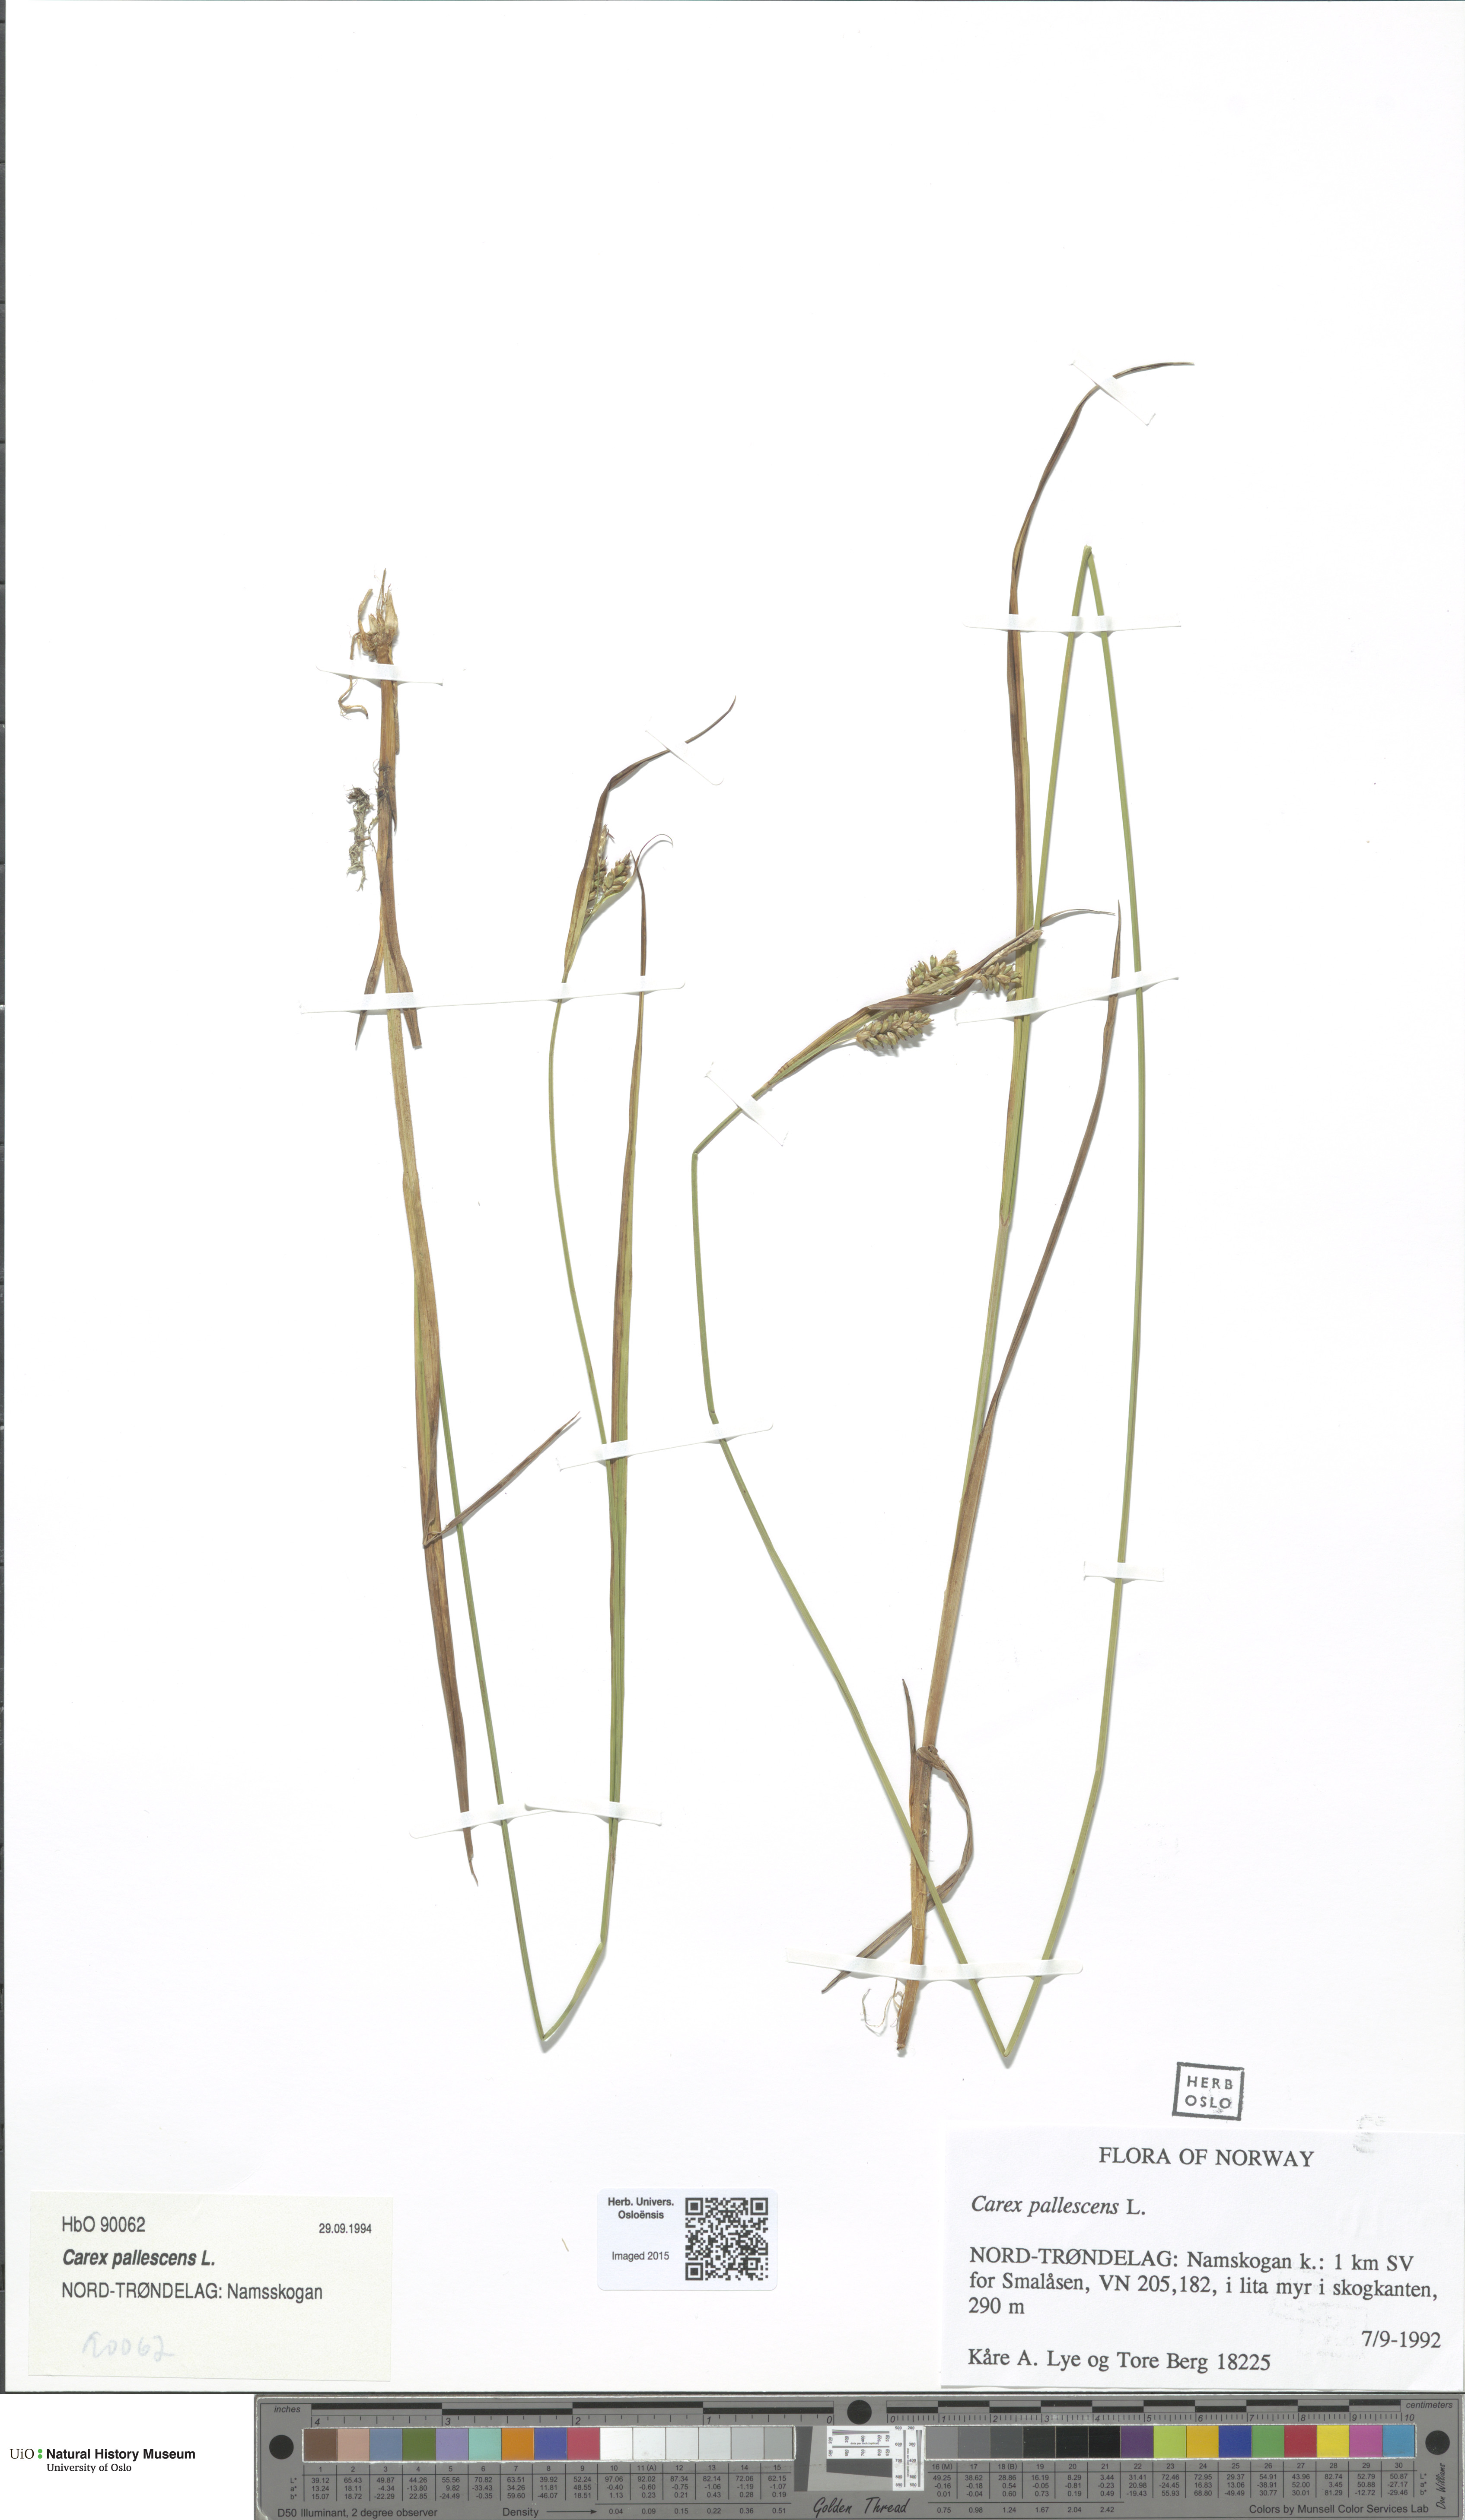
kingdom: Plantae
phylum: Tracheophyta
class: Liliopsida
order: Poales
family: Cyperaceae
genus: Carex
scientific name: Carex pallescens
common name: Pale sedge
